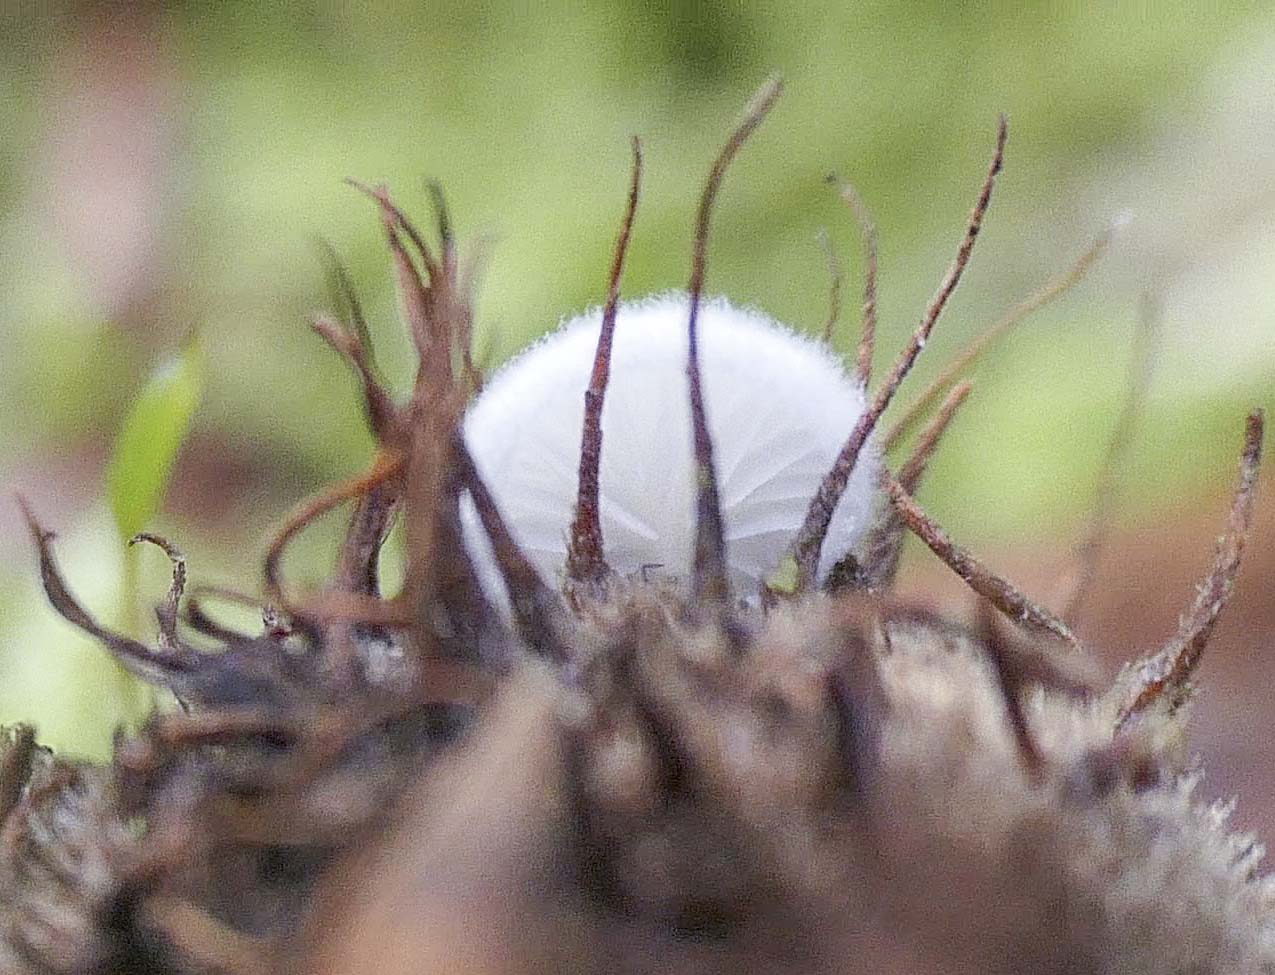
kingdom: Fungi
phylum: Basidiomycota
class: Agaricomycetes
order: Agaricales
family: Entolomataceae
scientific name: Entolomataceae
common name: rødbladfamilien
